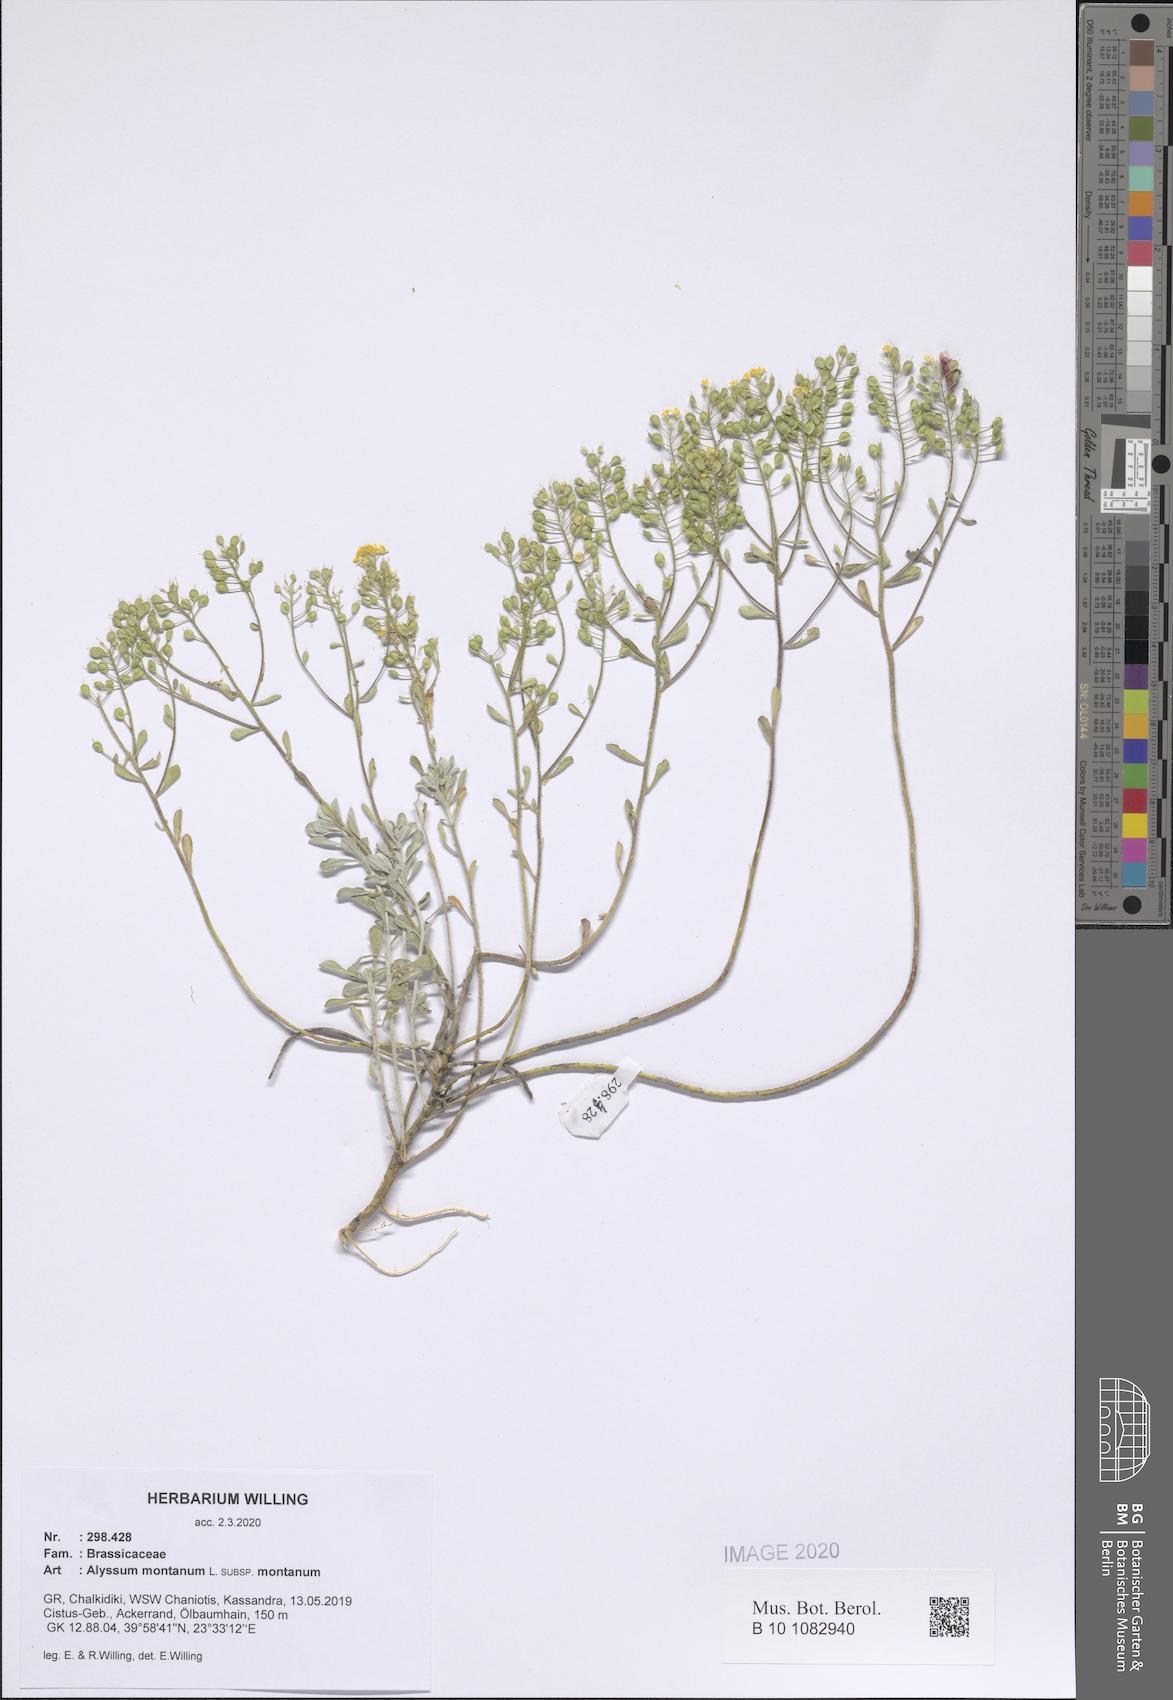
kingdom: Plantae
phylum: Tracheophyta
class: Magnoliopsida
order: Brassicales
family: Brassicaceae
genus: Alyssum
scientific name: Alyssum montanum
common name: Mountain alison
